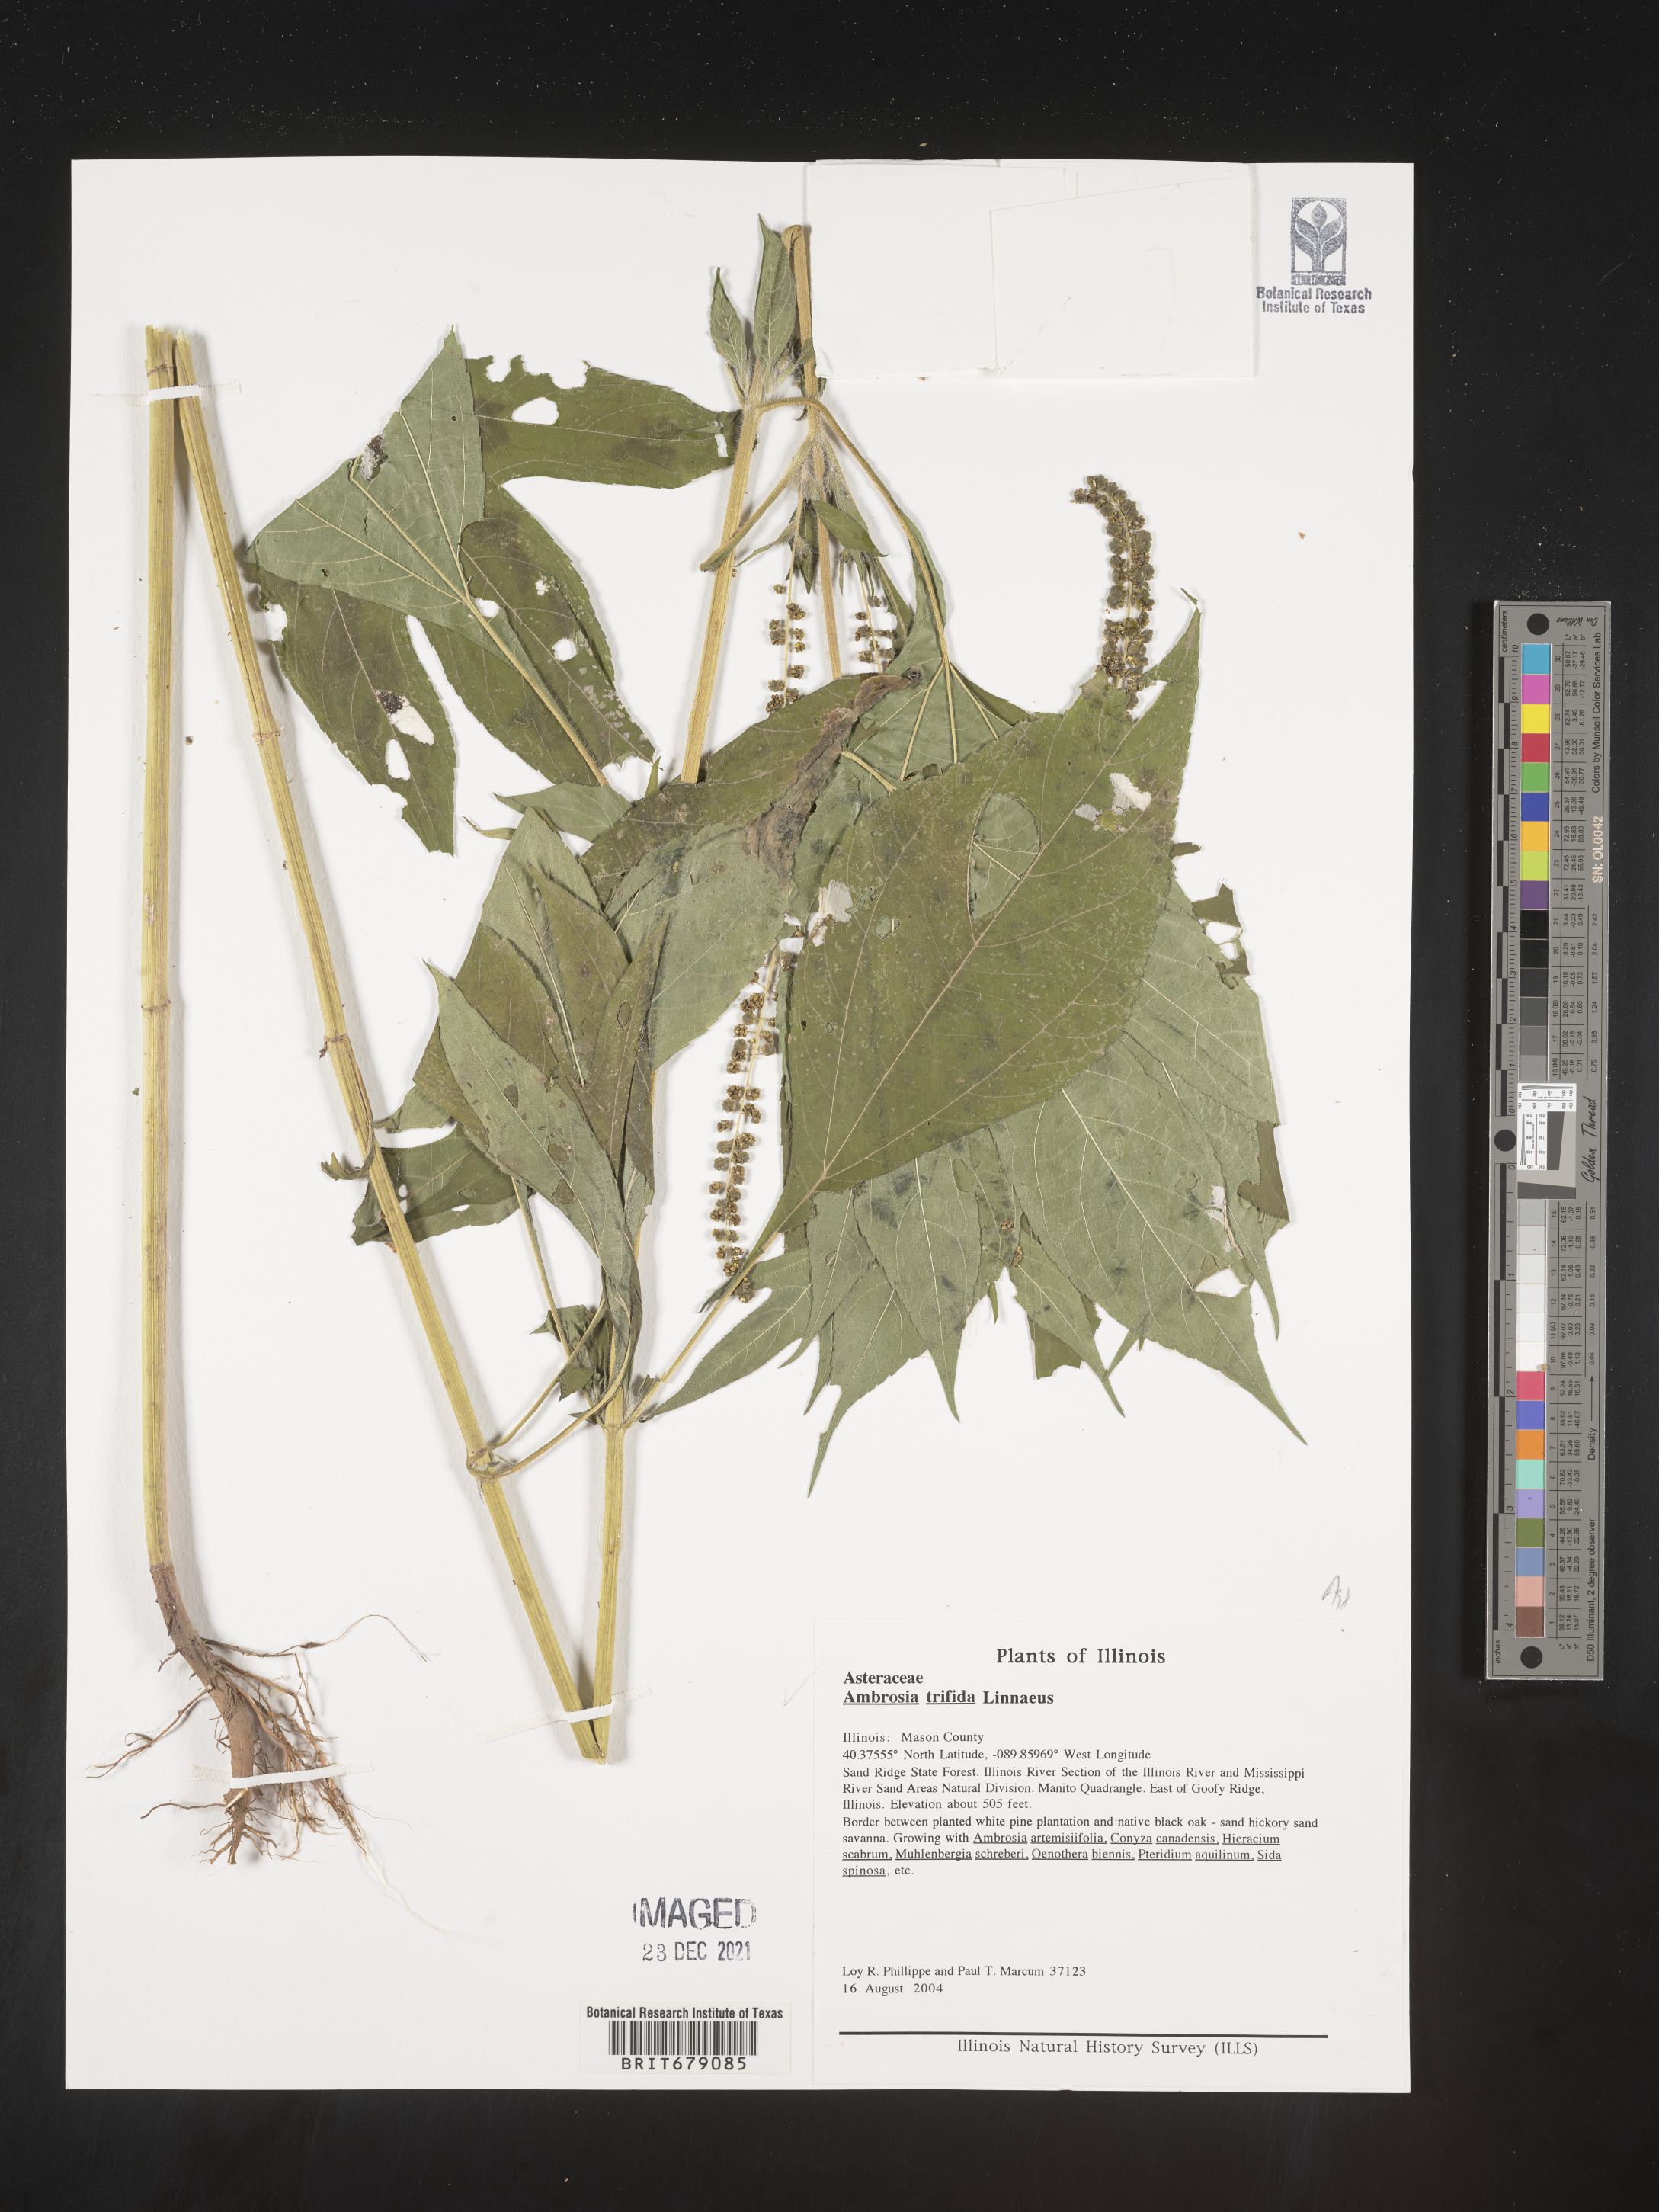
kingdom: Plantae
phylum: Tracheophyta
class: Magnoliopsida
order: Asterales
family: Asteraceae
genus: Ambrosia
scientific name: Ambrosia trifida
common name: Giant ragweed
